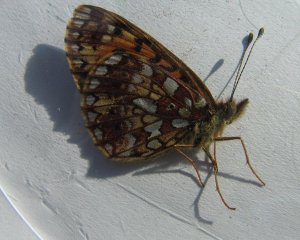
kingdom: Animalia
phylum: Arthropoda
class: Insecta
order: Lepidoptera
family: Nymphalidae
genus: Boloria
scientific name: Boloria selene
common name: Silver-bordered Fritillary
